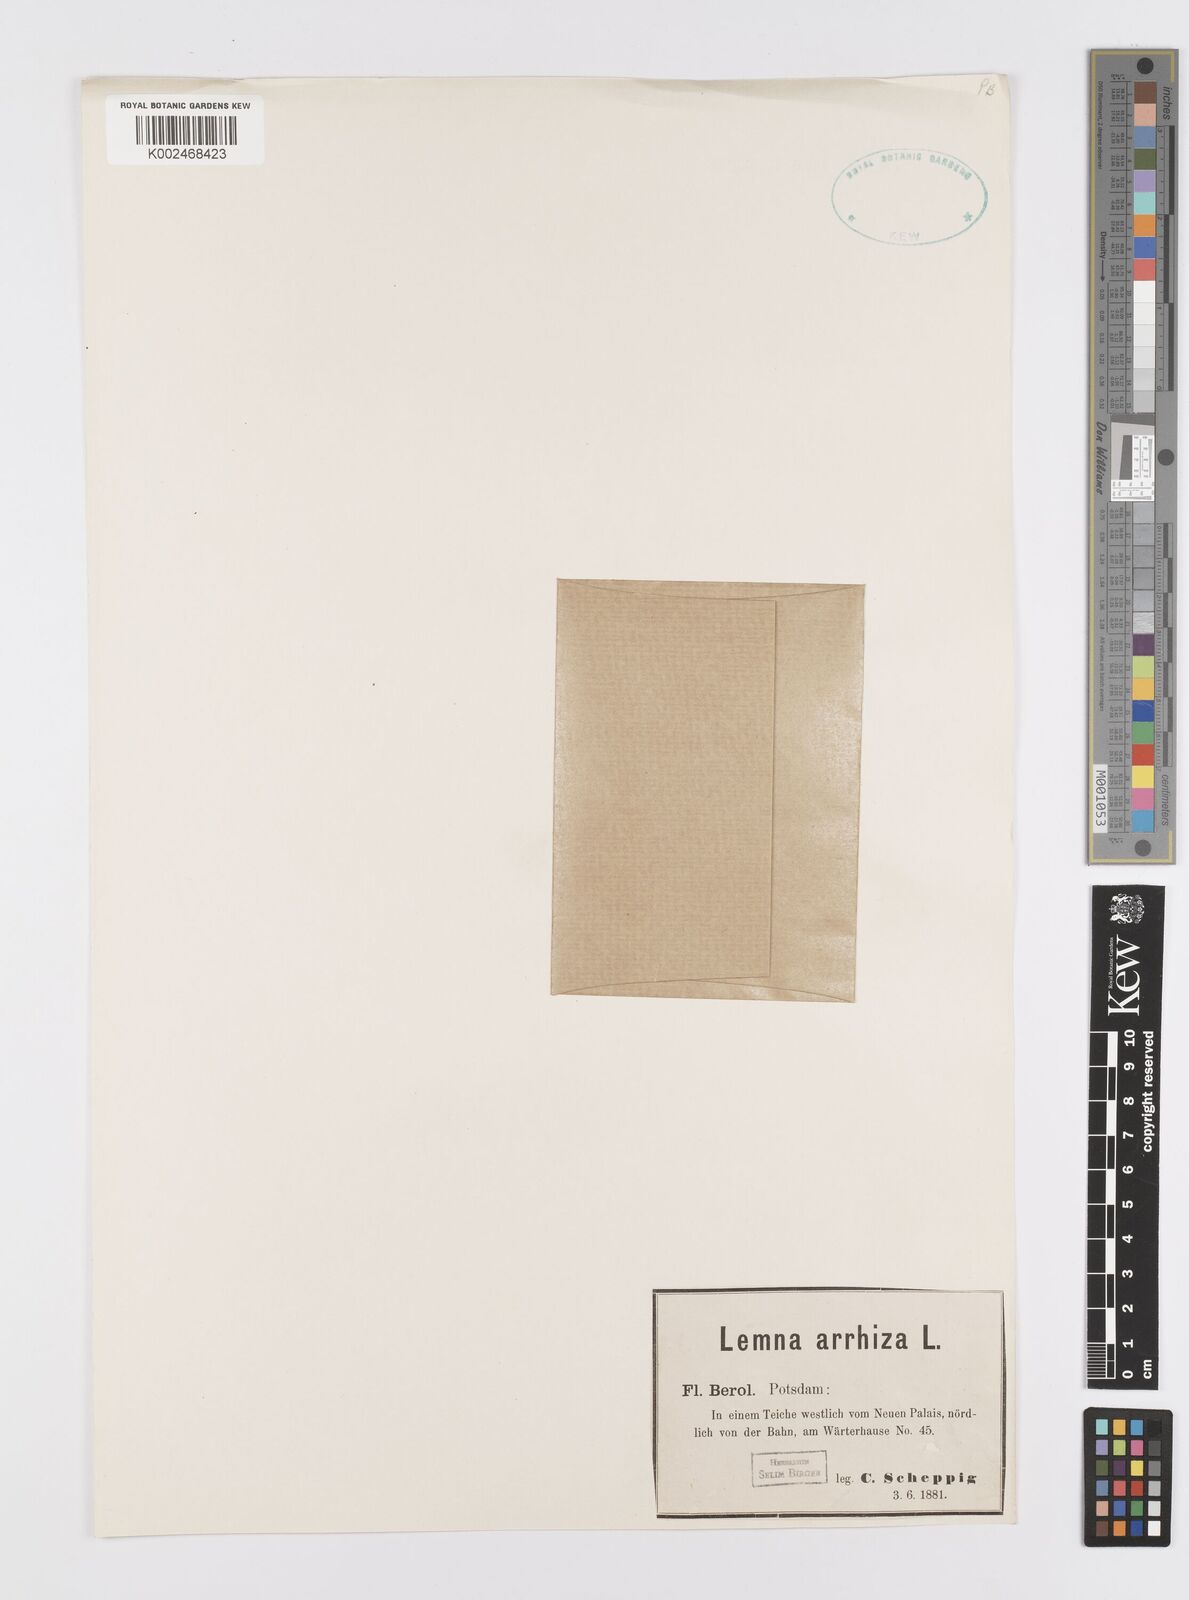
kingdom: Plantae
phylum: Tracheophyta
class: Liliopsida
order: Alismatales
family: Araceae
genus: Wolffia
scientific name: Wolffia arrhiza
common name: Rootless duckweed
